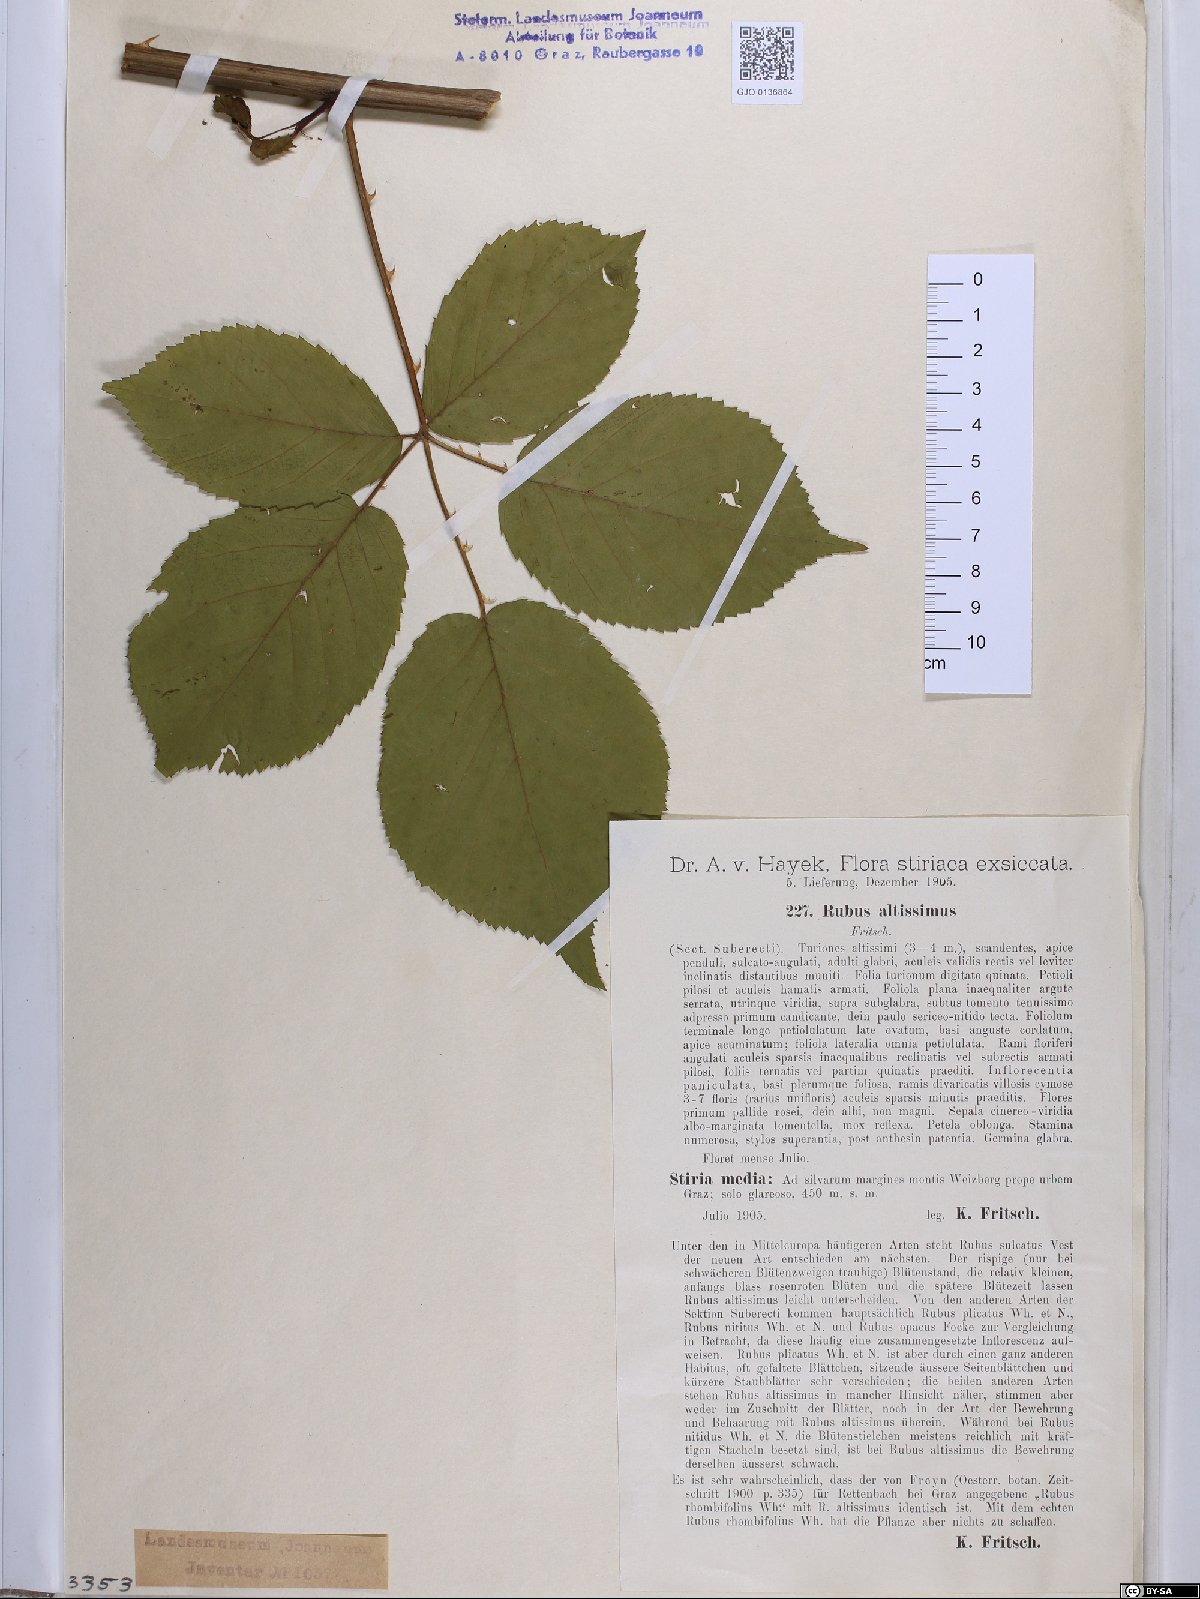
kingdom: Plantae
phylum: Tracheophyta
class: Magnoliopsida
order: Rosales
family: Rosaceae
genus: Rubus
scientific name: Rubus sulcatus
